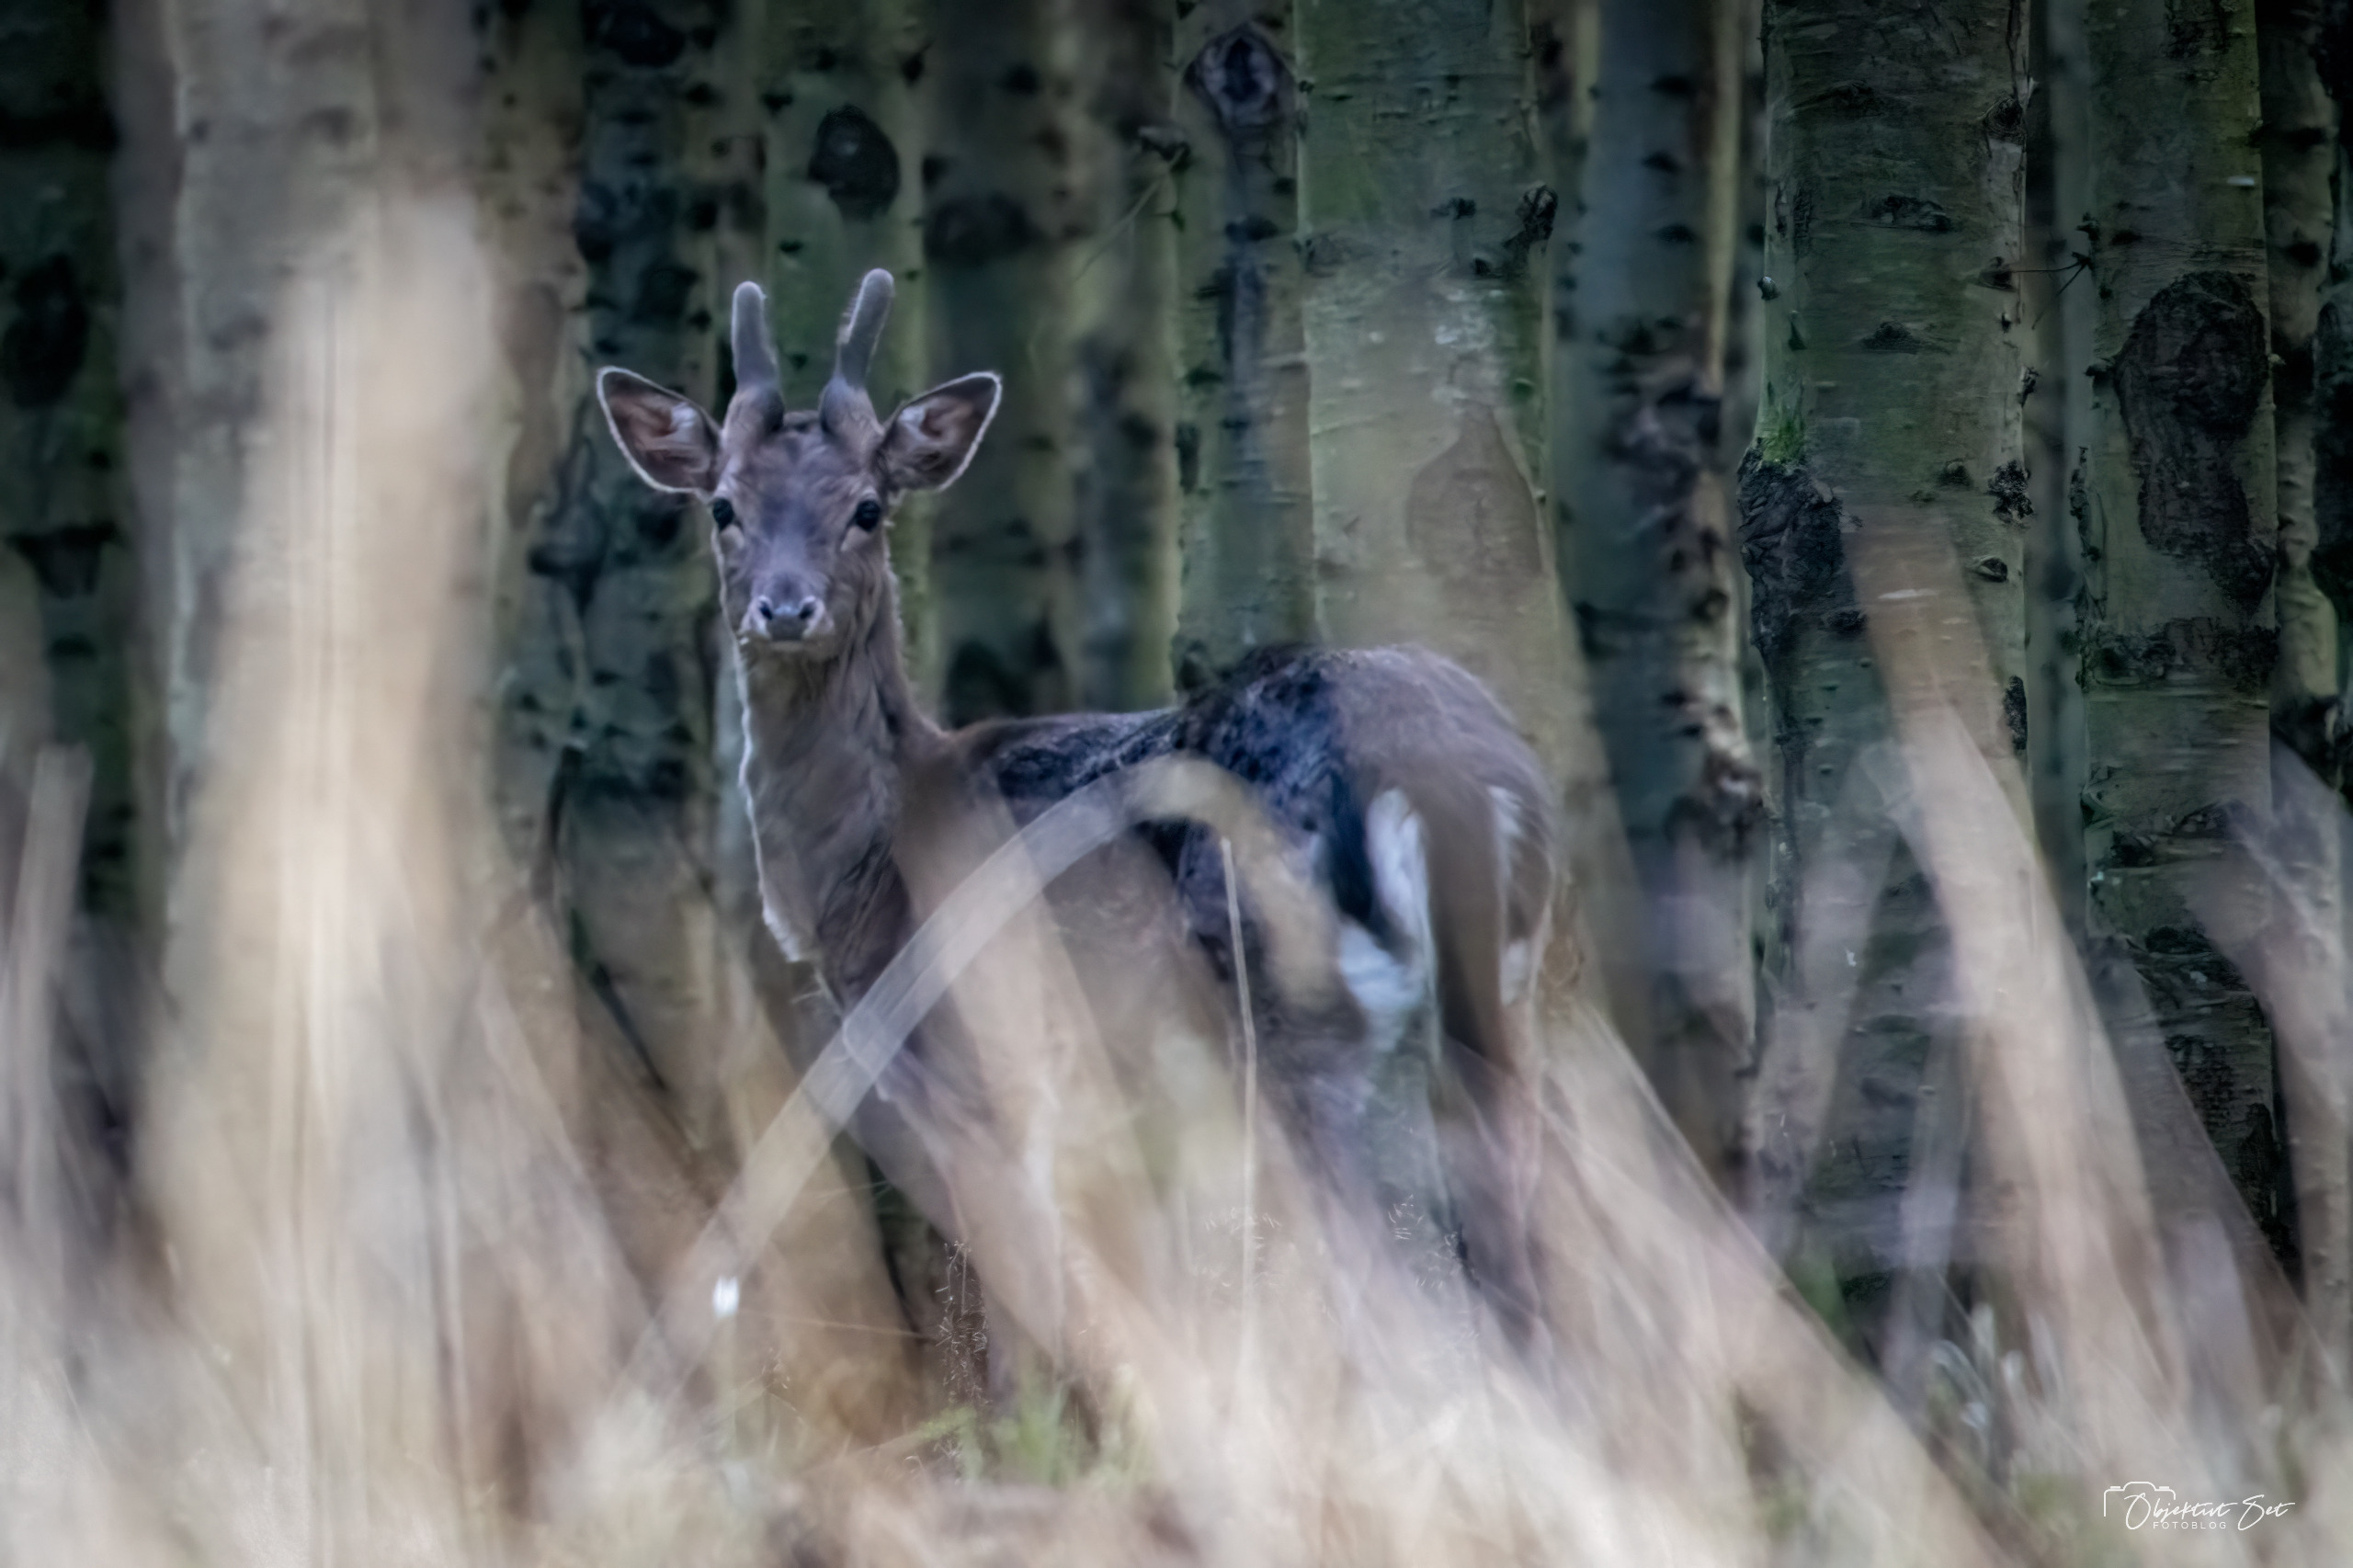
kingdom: Animalia
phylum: Chordata
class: Mammalia
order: Artiodactyla
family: Cervidae
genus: Dama
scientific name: Dama dama
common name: Dådyr
